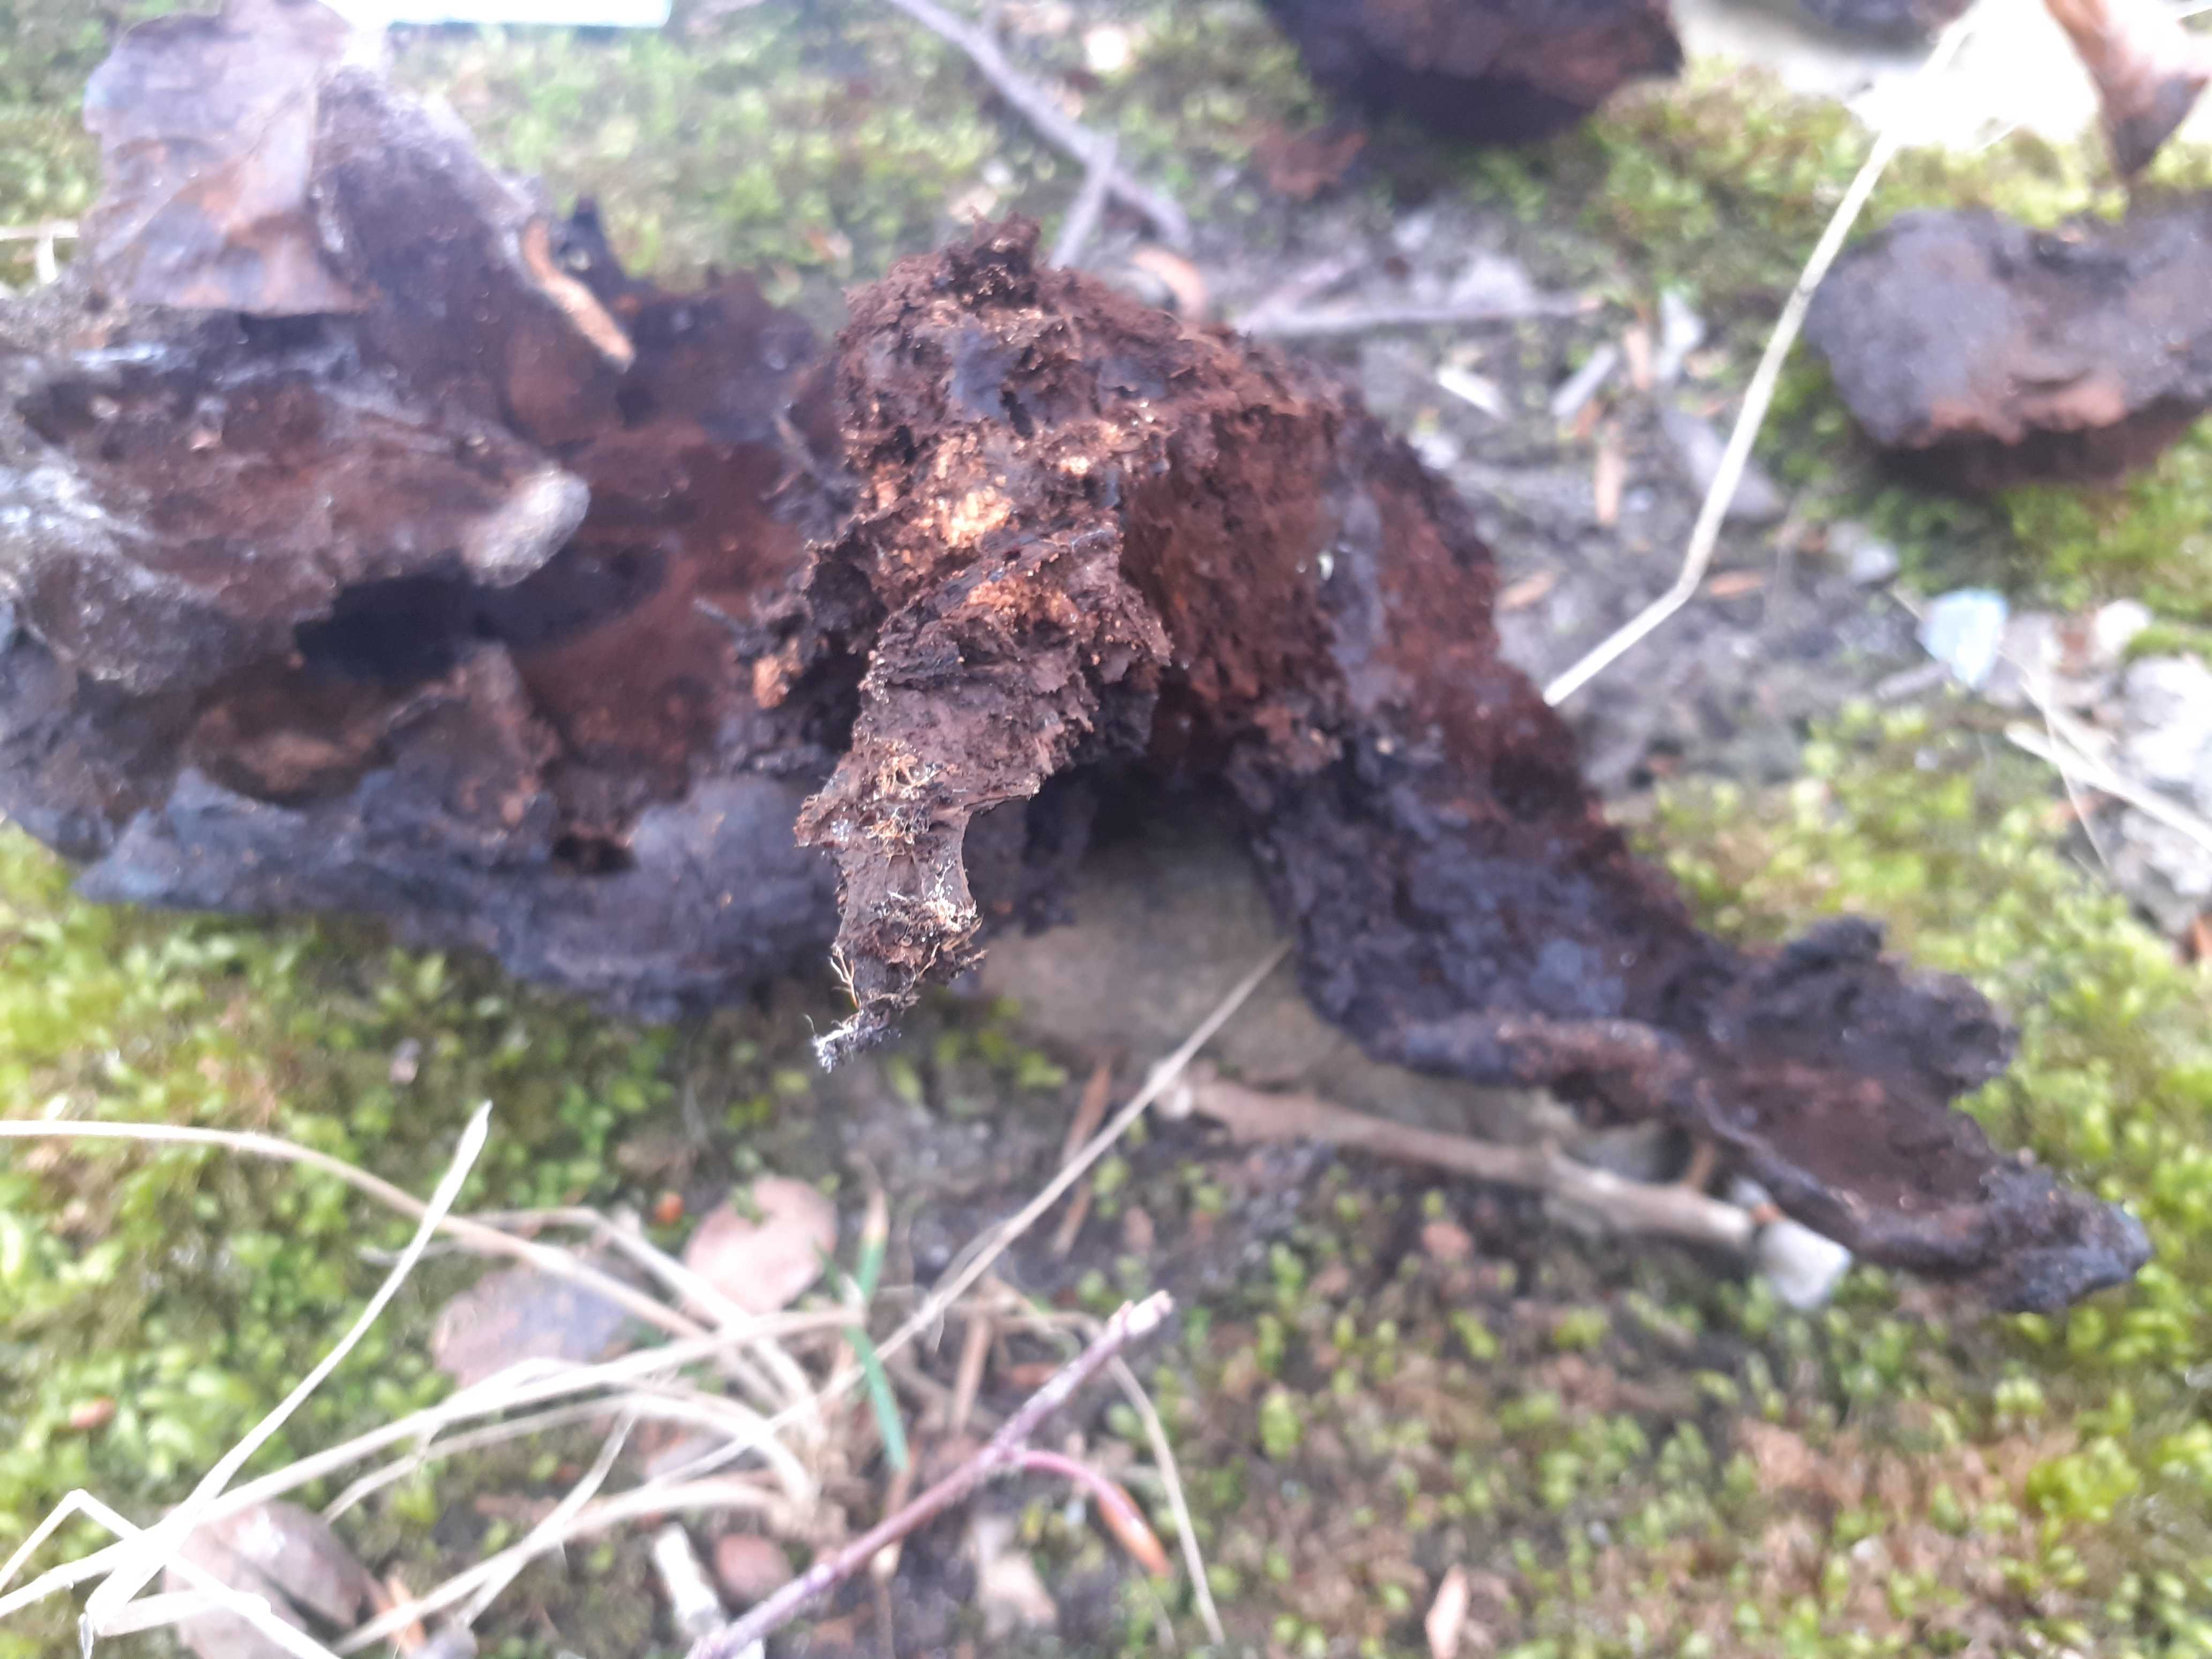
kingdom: Fungi
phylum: Basidiomycota
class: Agaricomycetes
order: Hymenochaetales
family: Hymenochaetaceae
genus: Inonotus
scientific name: Inonotus cuticularis
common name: kroghåret spejlporesvamp
